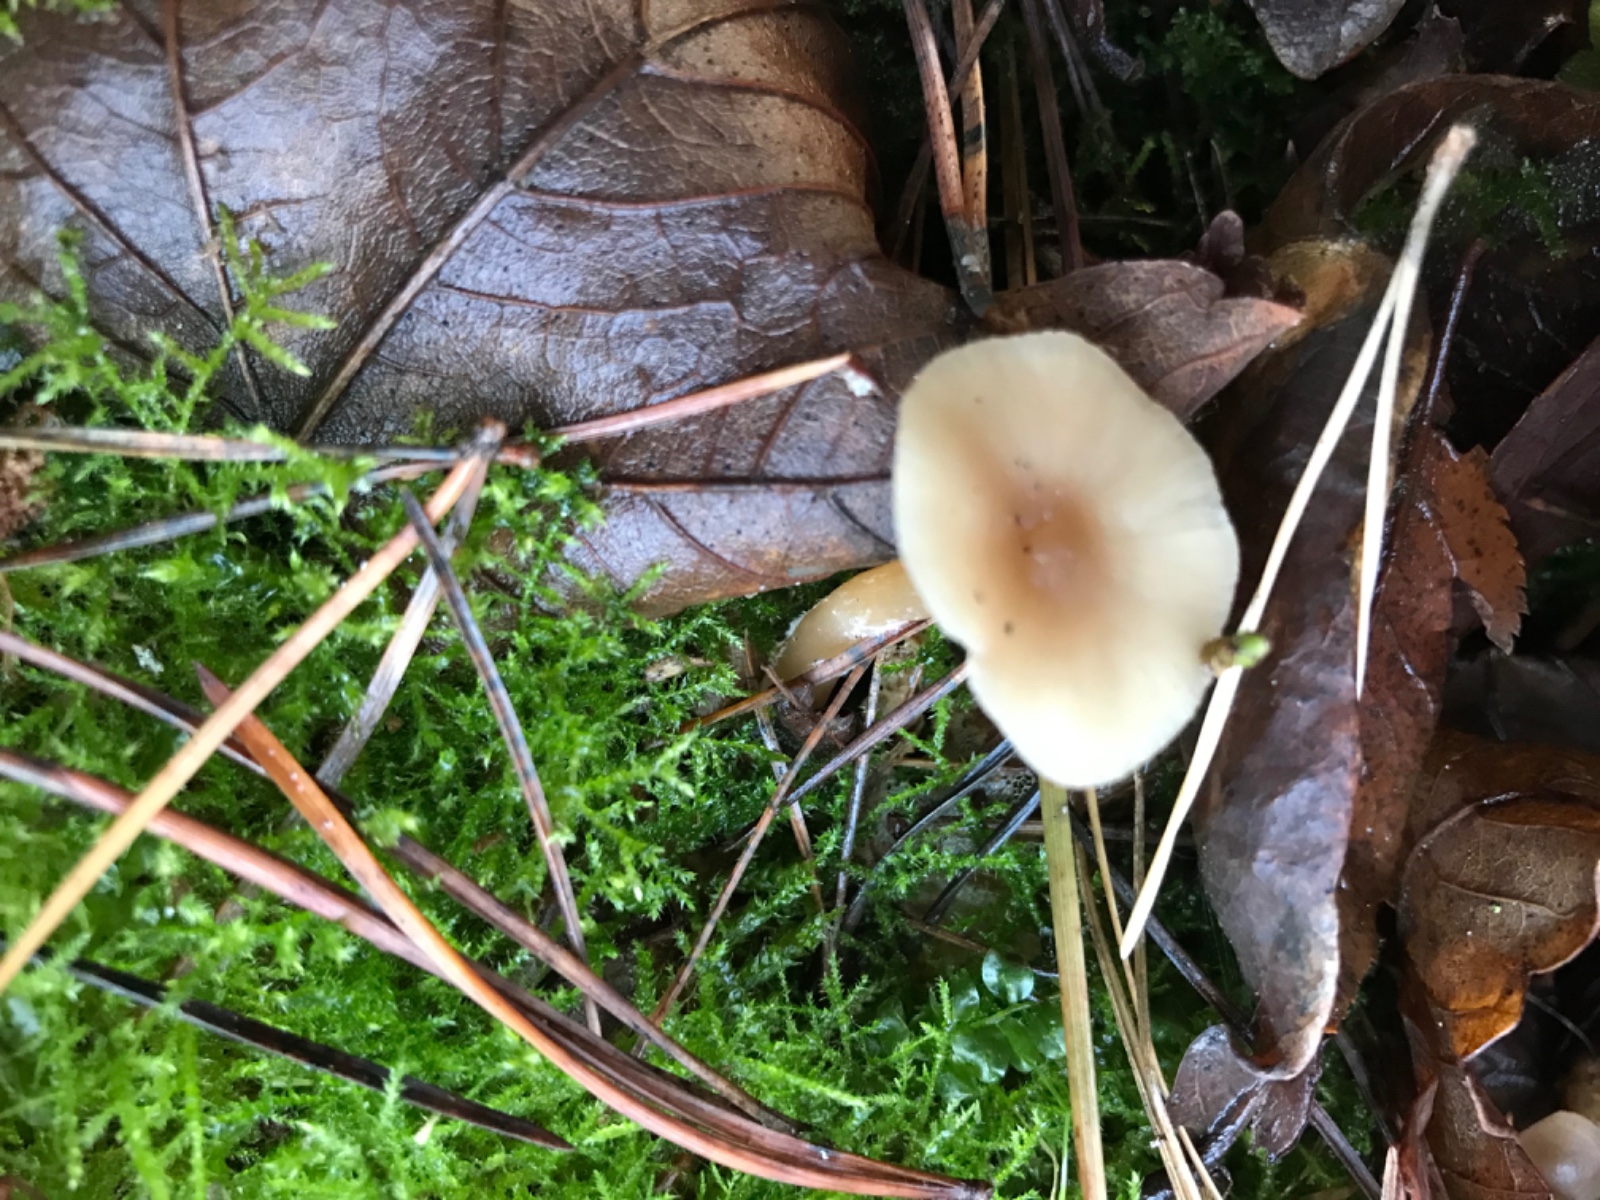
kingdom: Fungi
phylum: Basidiomycota
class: Agaricomycetes
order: Agaricales
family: Omphalotaceae
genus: Rhodocollybia
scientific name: Rhodocollybia asema
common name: horngrå fladhat
